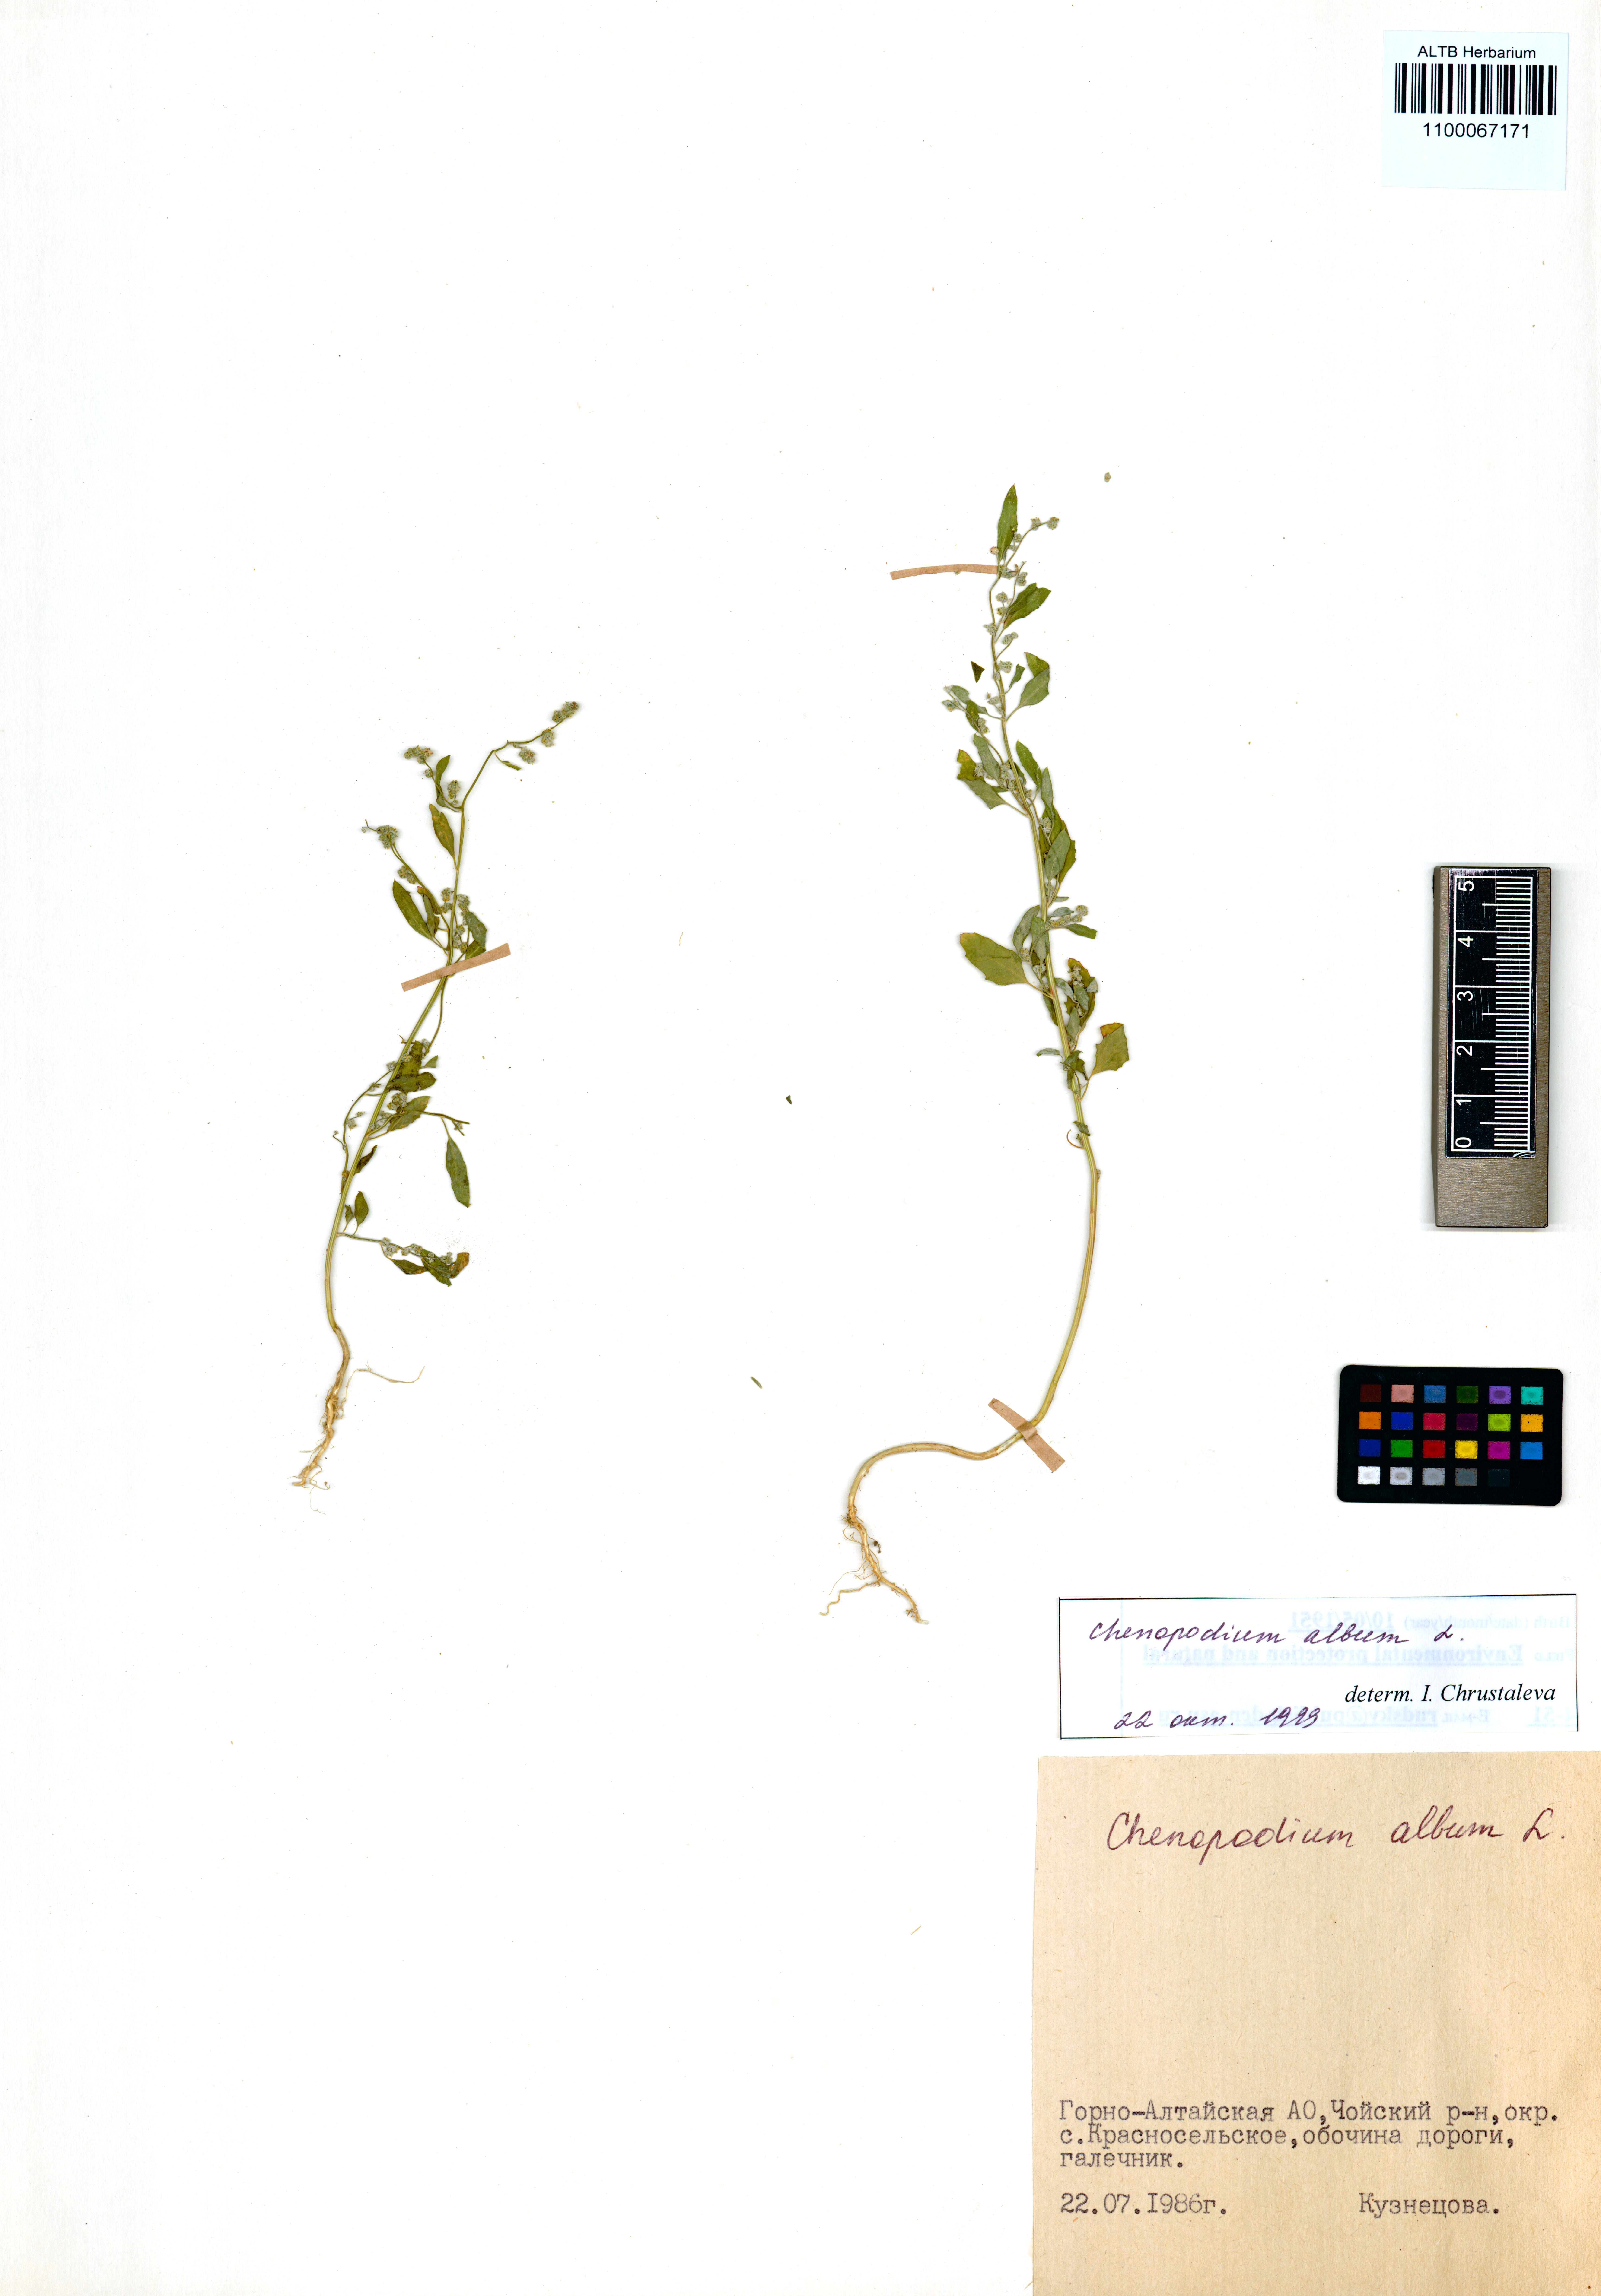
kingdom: Plantae
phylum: Tracheophyta
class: Magnoliopsida
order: Caryophyllales
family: Amaranthaceae
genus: Chenopodium
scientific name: Chenopodium album
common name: Fat-hen
